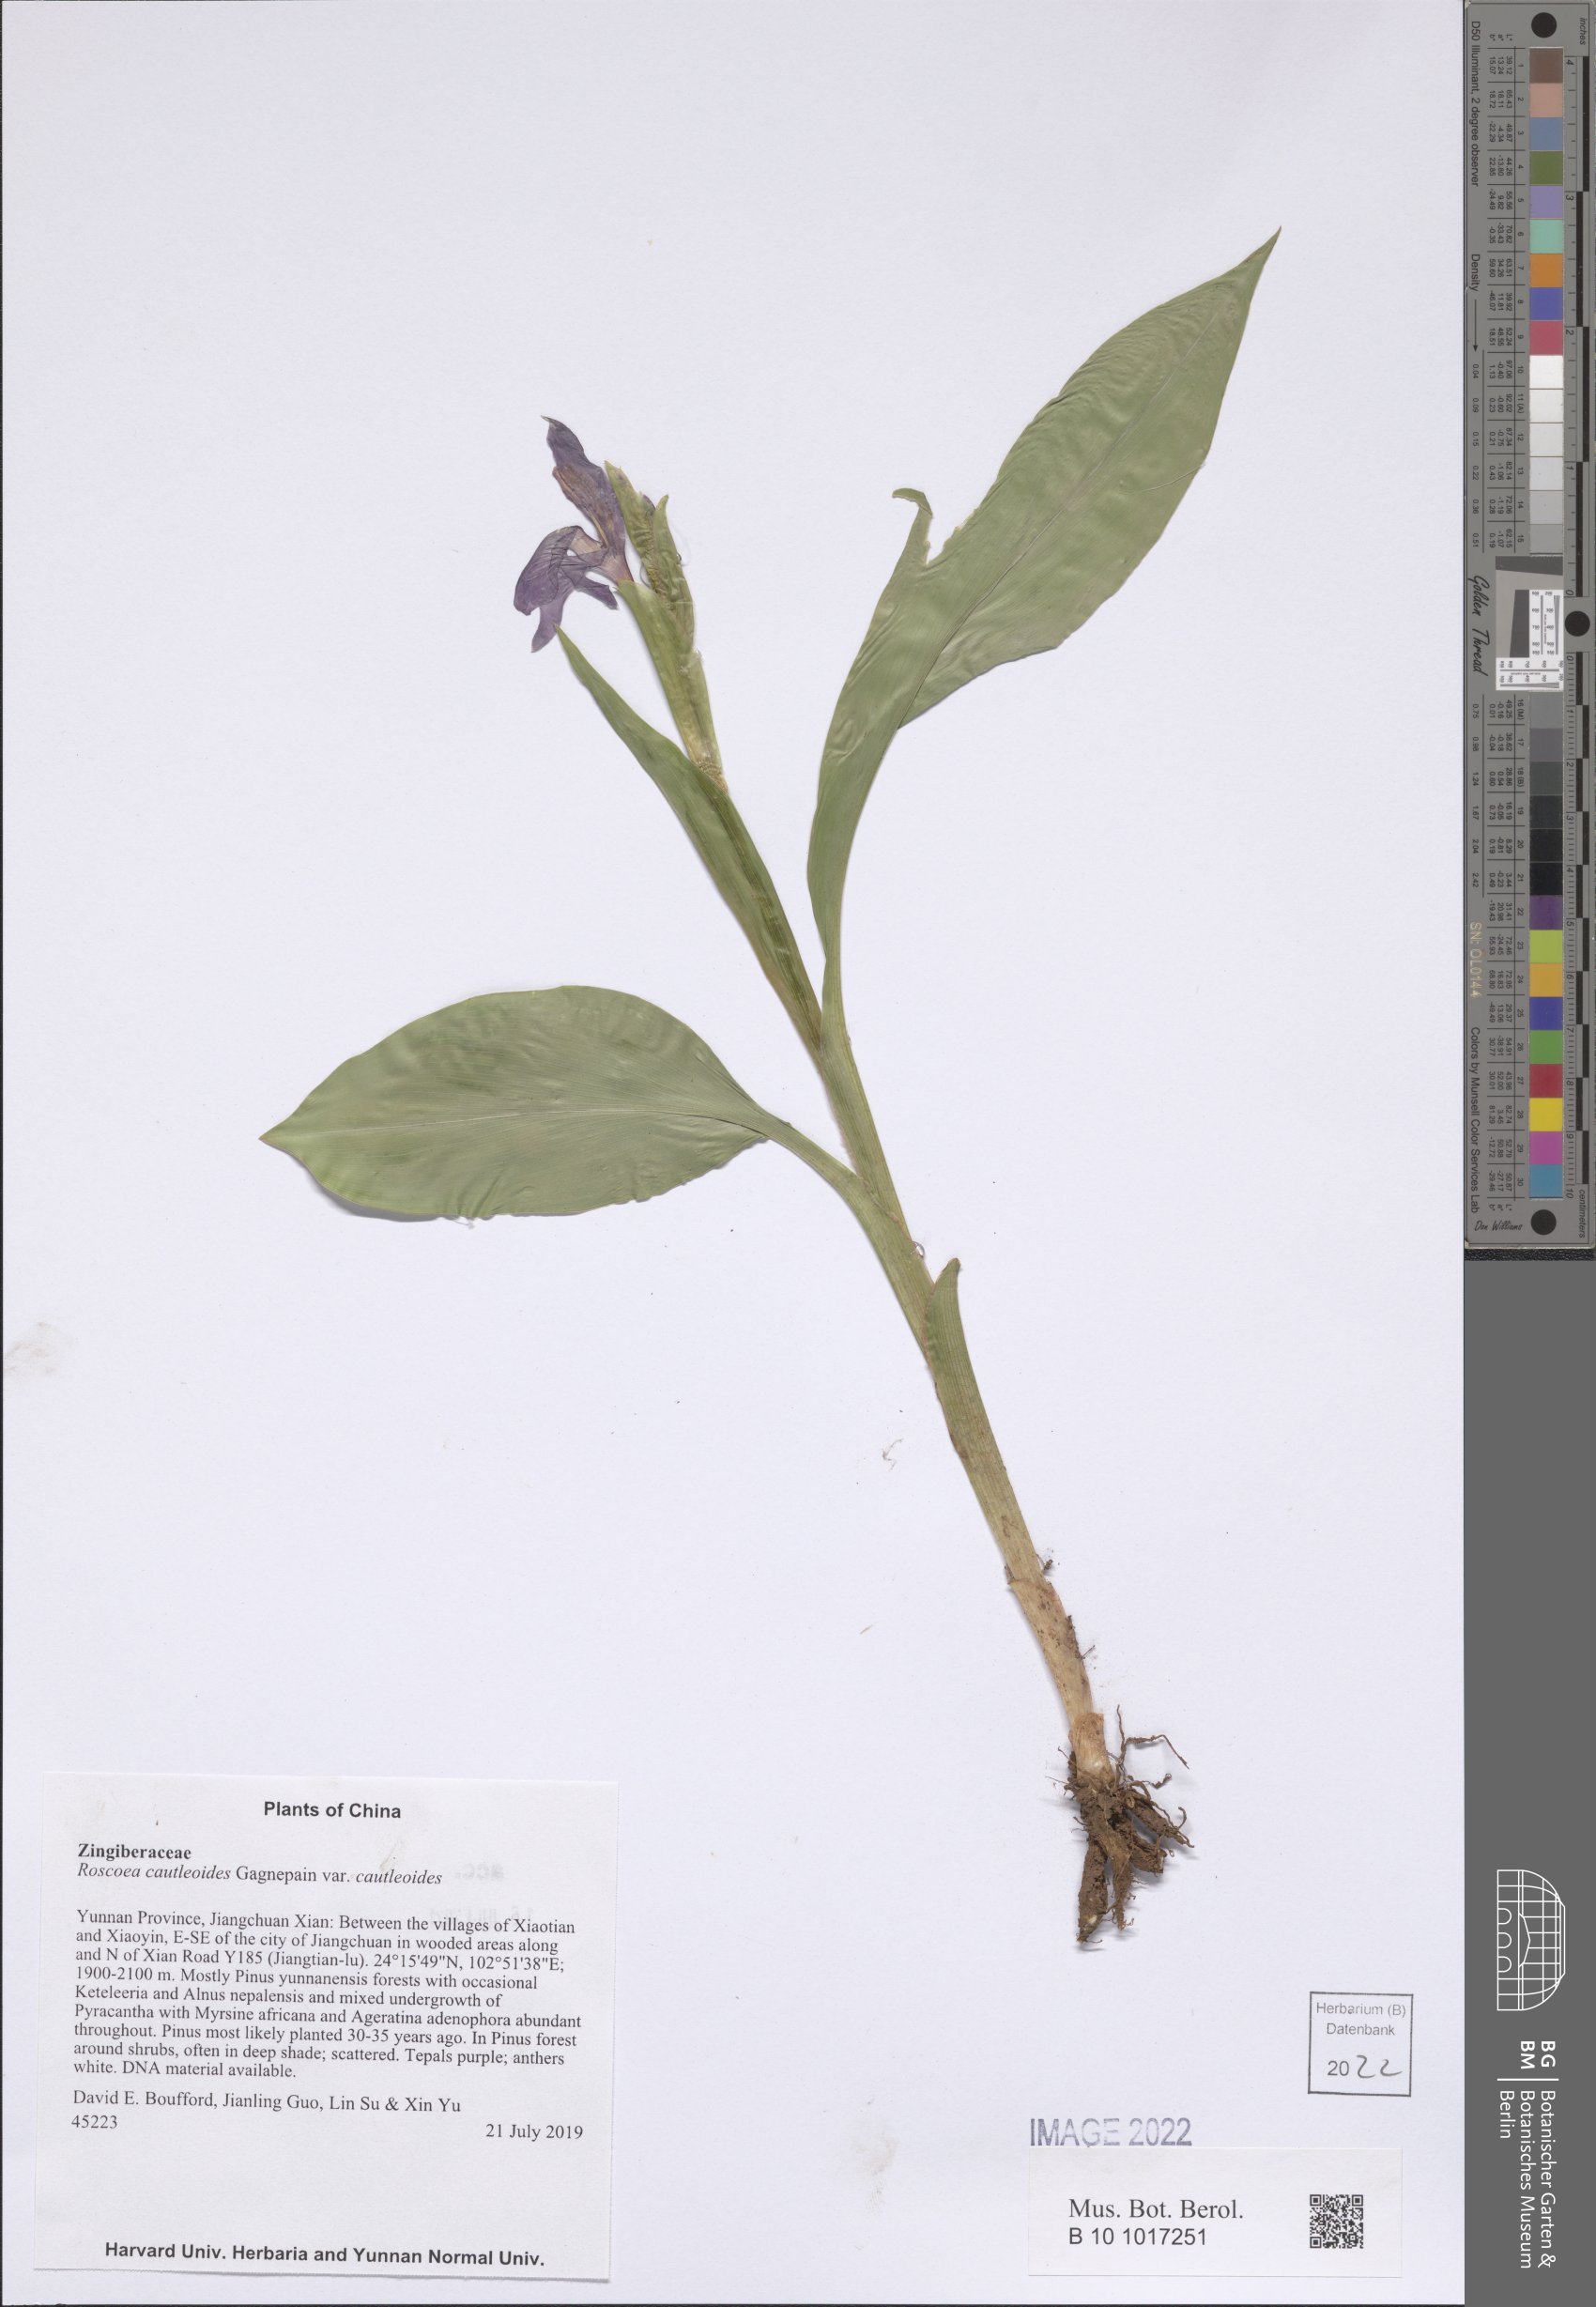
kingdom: Plantae
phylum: Tracheophyta
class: Liliopsida
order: Zingiberales
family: Zingiberaceae
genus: Roscoea
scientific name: Roscoea cautleyoides
